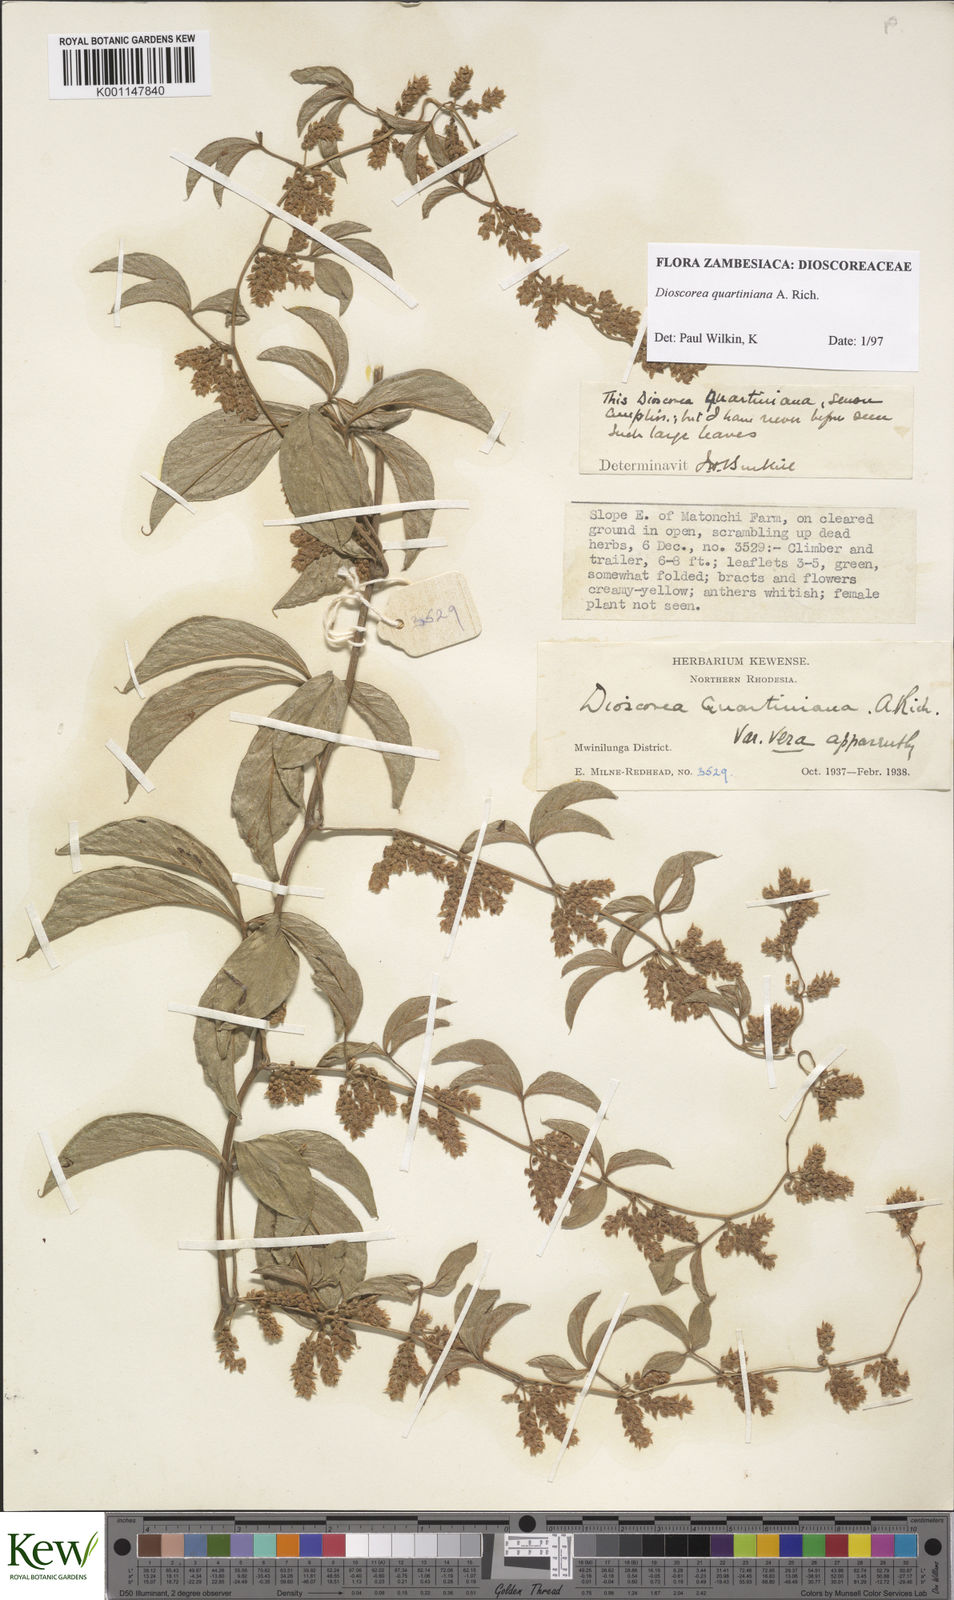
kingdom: Plantae
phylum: Tracheophyta
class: Liliopsida
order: Dioscoreales
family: Dioscoreaceae
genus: Dioscorea
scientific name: Dioscorea quartiniana
